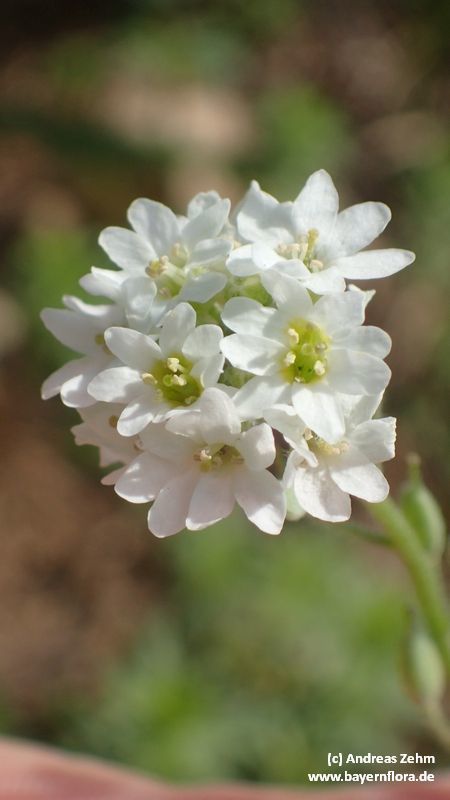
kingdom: Plantae
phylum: Tracheophyta
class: Magnoliopsida
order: Brassicales
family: Brassicaceae
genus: Berteroa
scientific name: Berteroa incana
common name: Hoary alison
